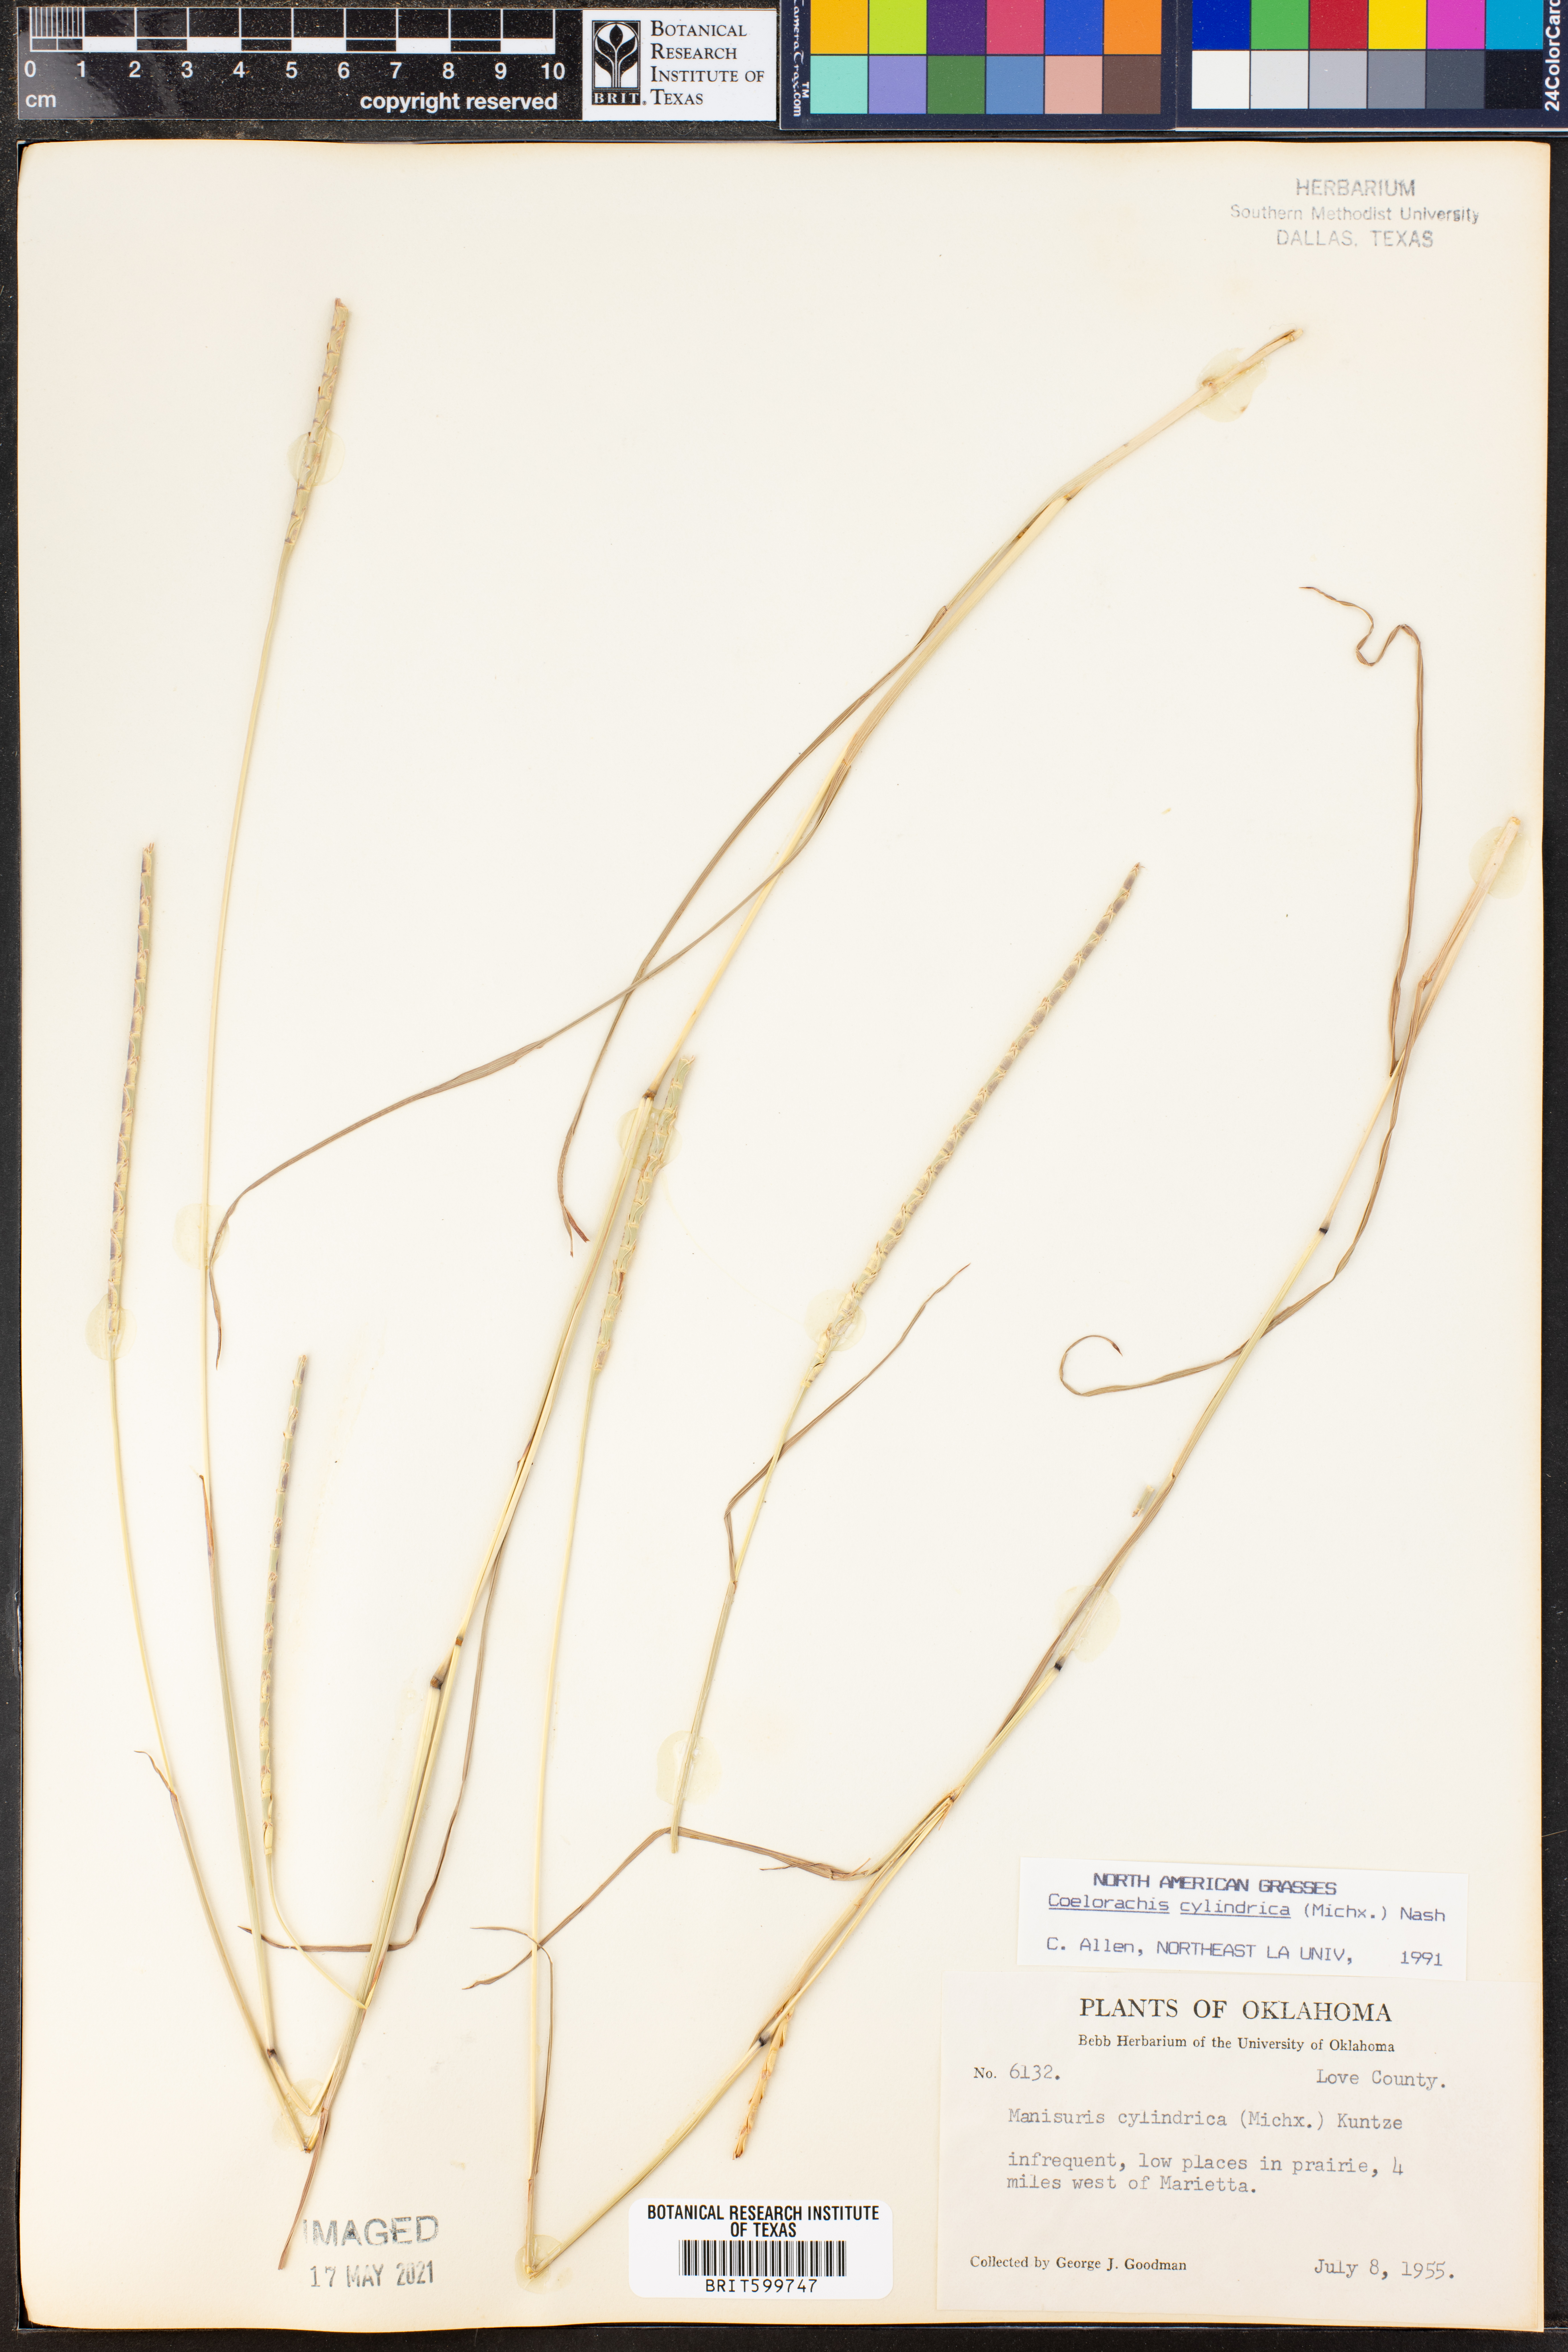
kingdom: Plantae
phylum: Tracheophyta
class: Liliopsida
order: Poales
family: Poaceae
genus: Rottboellia
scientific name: Rottboellia campestris
